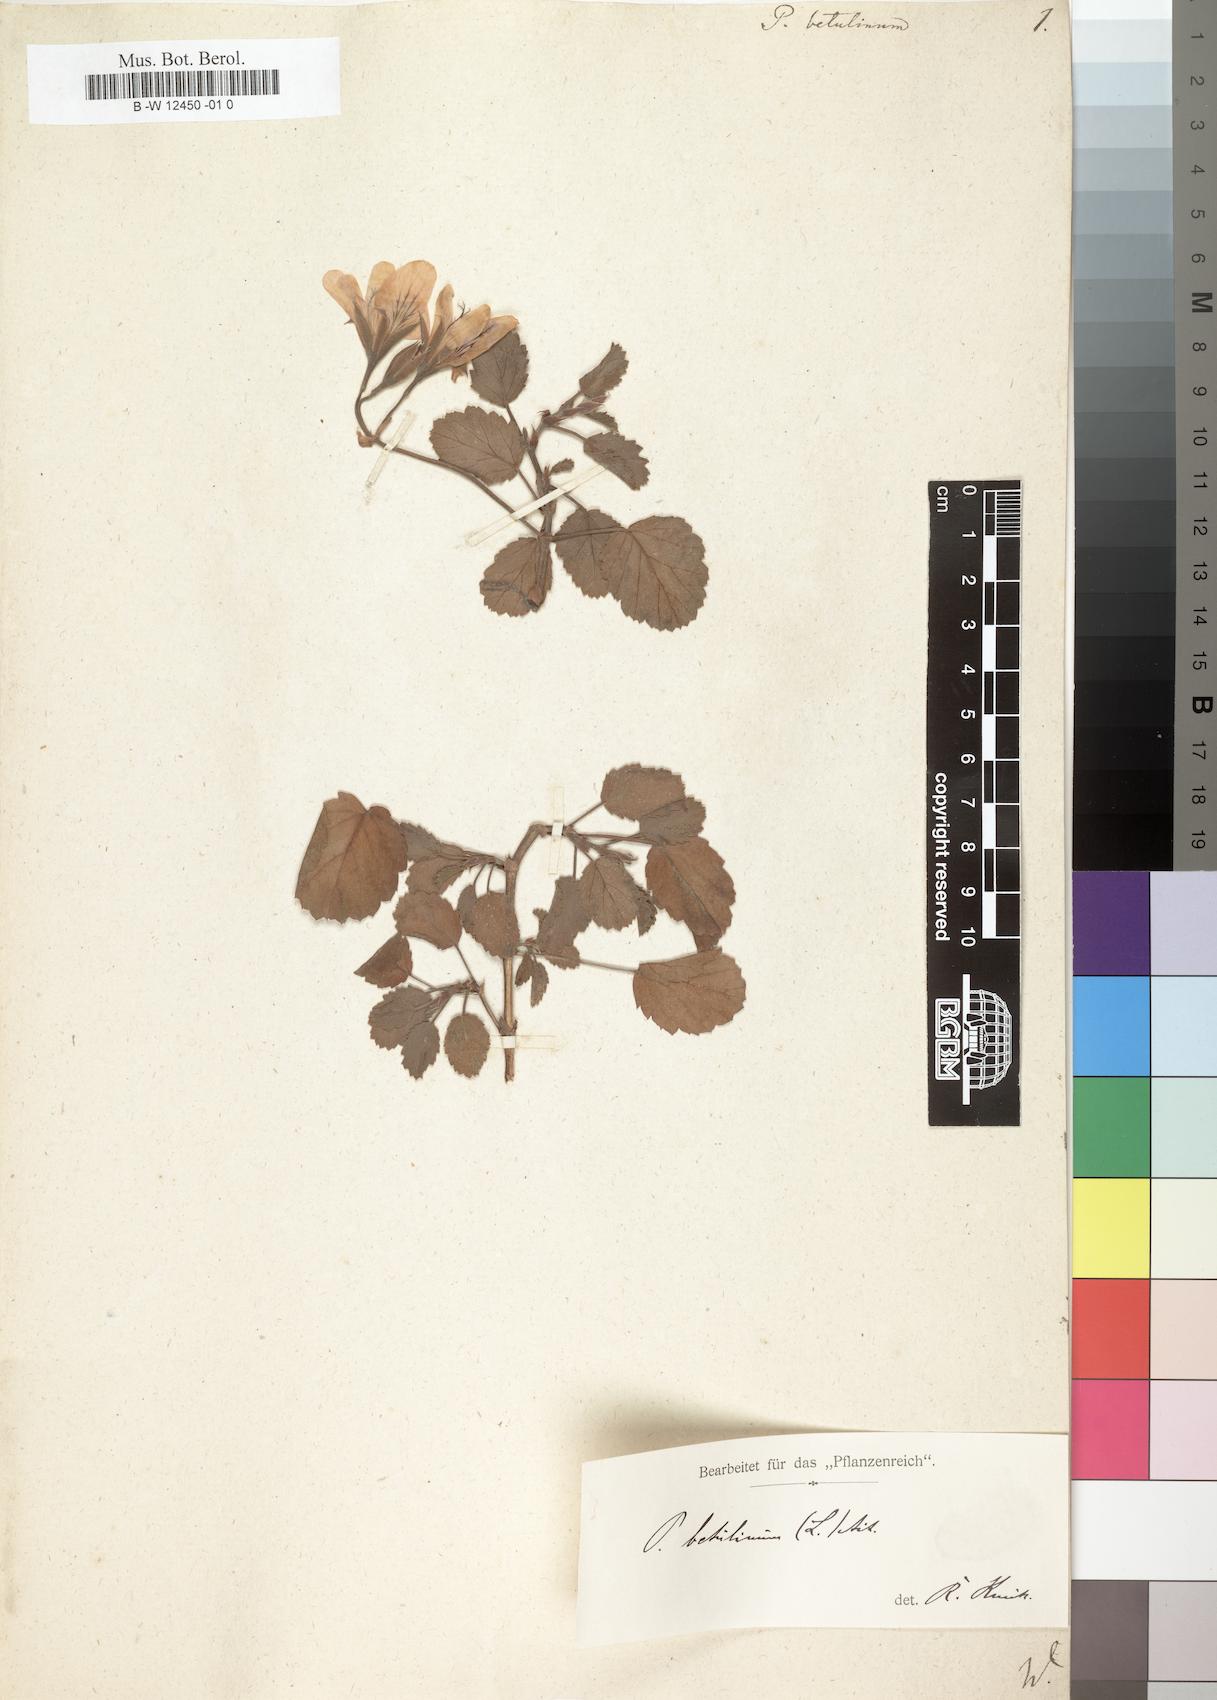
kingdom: Plantae
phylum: Tracheophyta
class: Magnoliopsida
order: Geraniales
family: Geraniaceae
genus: Pelargonium
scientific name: Pelargonium betulinum
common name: Birch-leaf pelargonium
